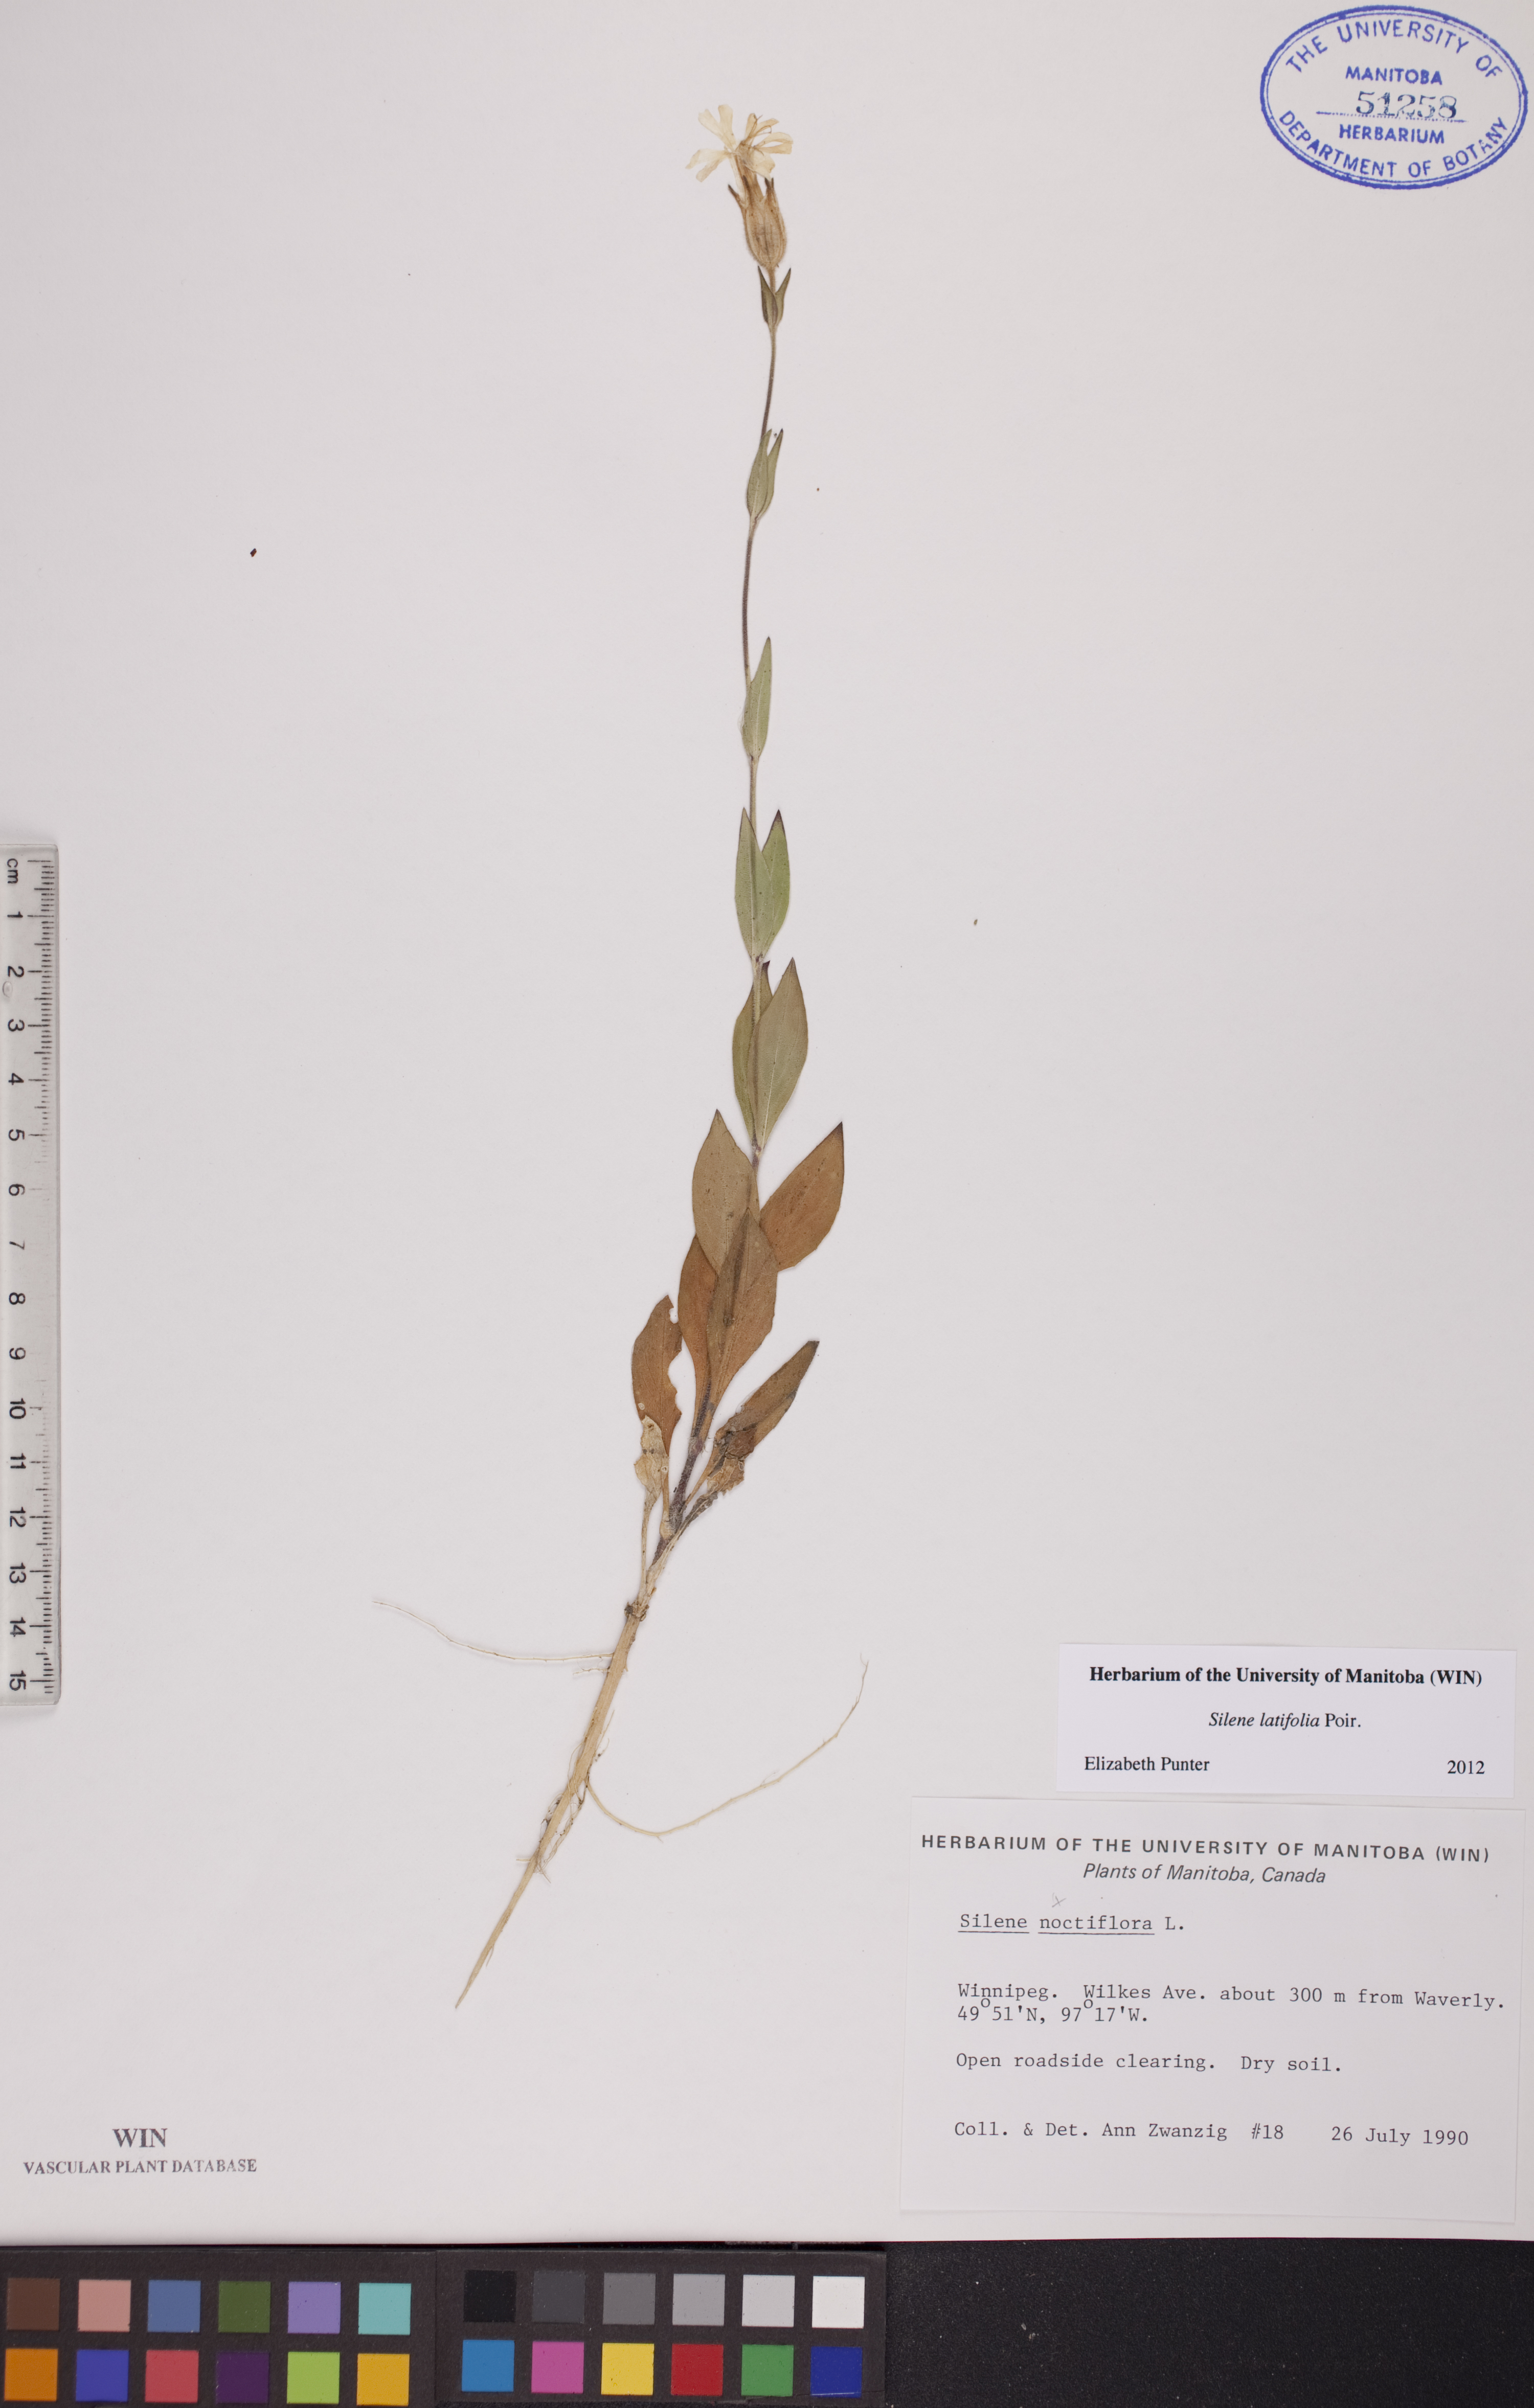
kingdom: Plantae
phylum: Tracheophyta
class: Magnoliopsida
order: Caryophyllales
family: Caryophyllaceae
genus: Silene
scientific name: Silene latifolia
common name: White campion
